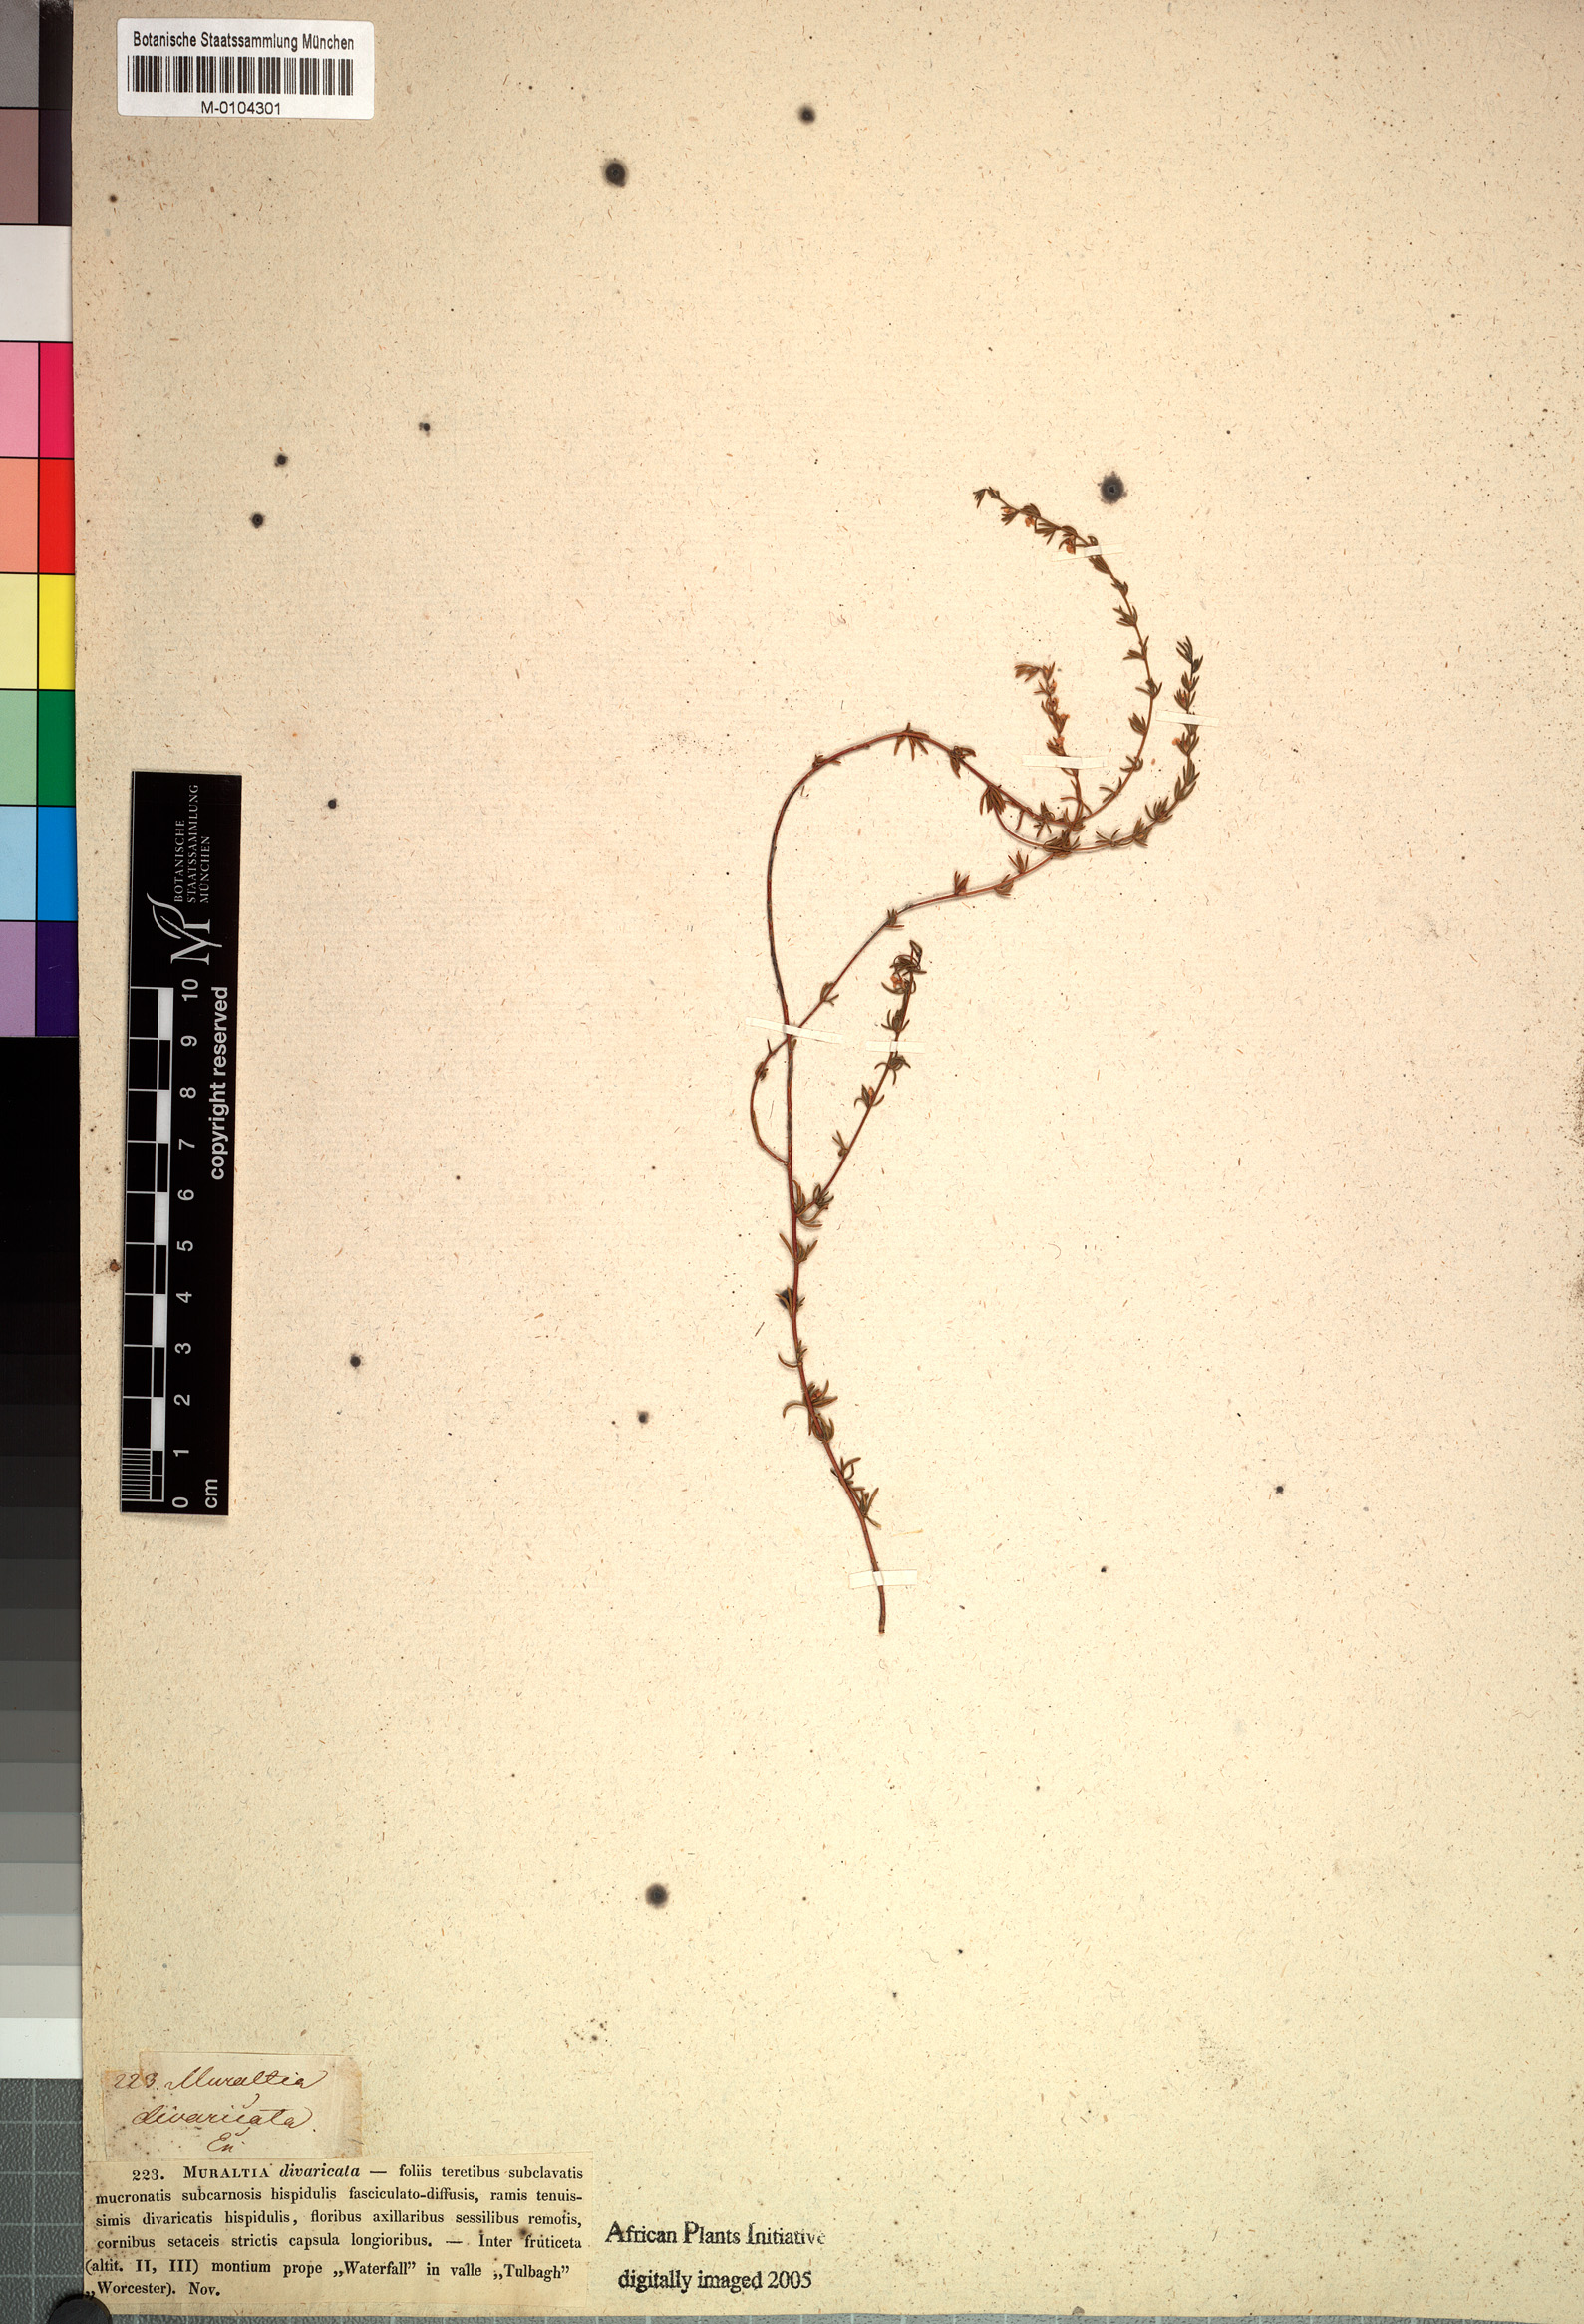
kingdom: Plantae
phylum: Tracheophyta
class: Magnoliopsida
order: Fabales
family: Polygalaceae
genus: Muraltia
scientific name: Muraltia divaricata
